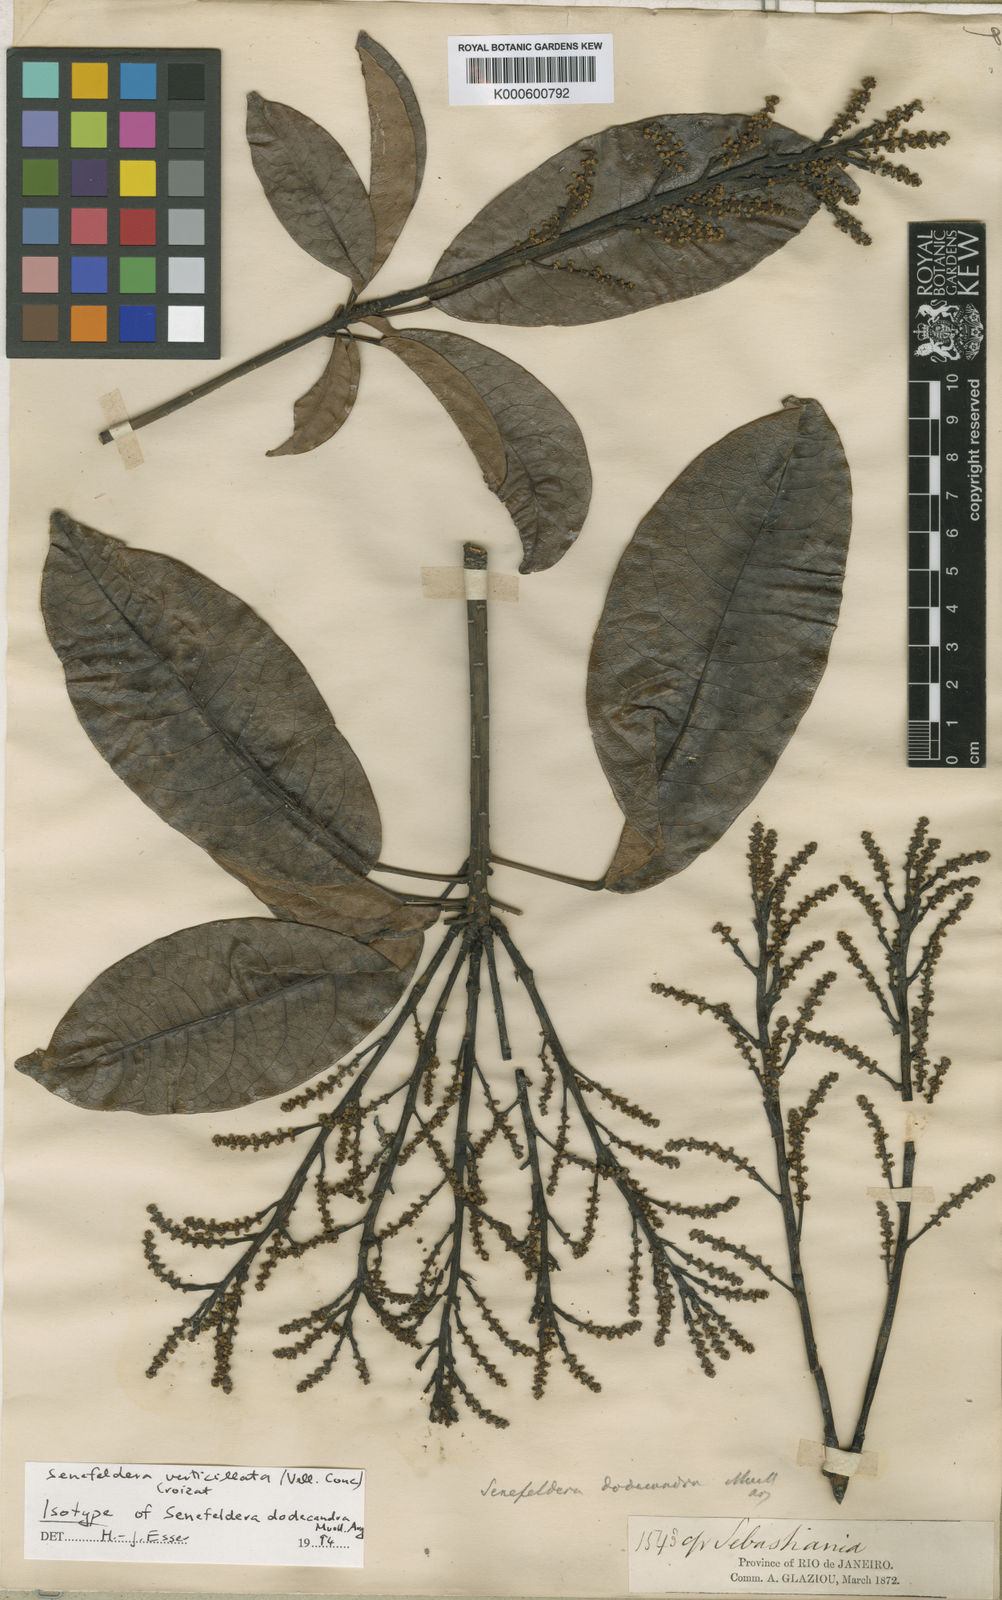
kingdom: Plantae
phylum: Tracheophyta
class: Magnoliopsida
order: Malpighiales
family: Euphorbiaceae
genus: Senefeldera
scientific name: Senefeldera verticillata
